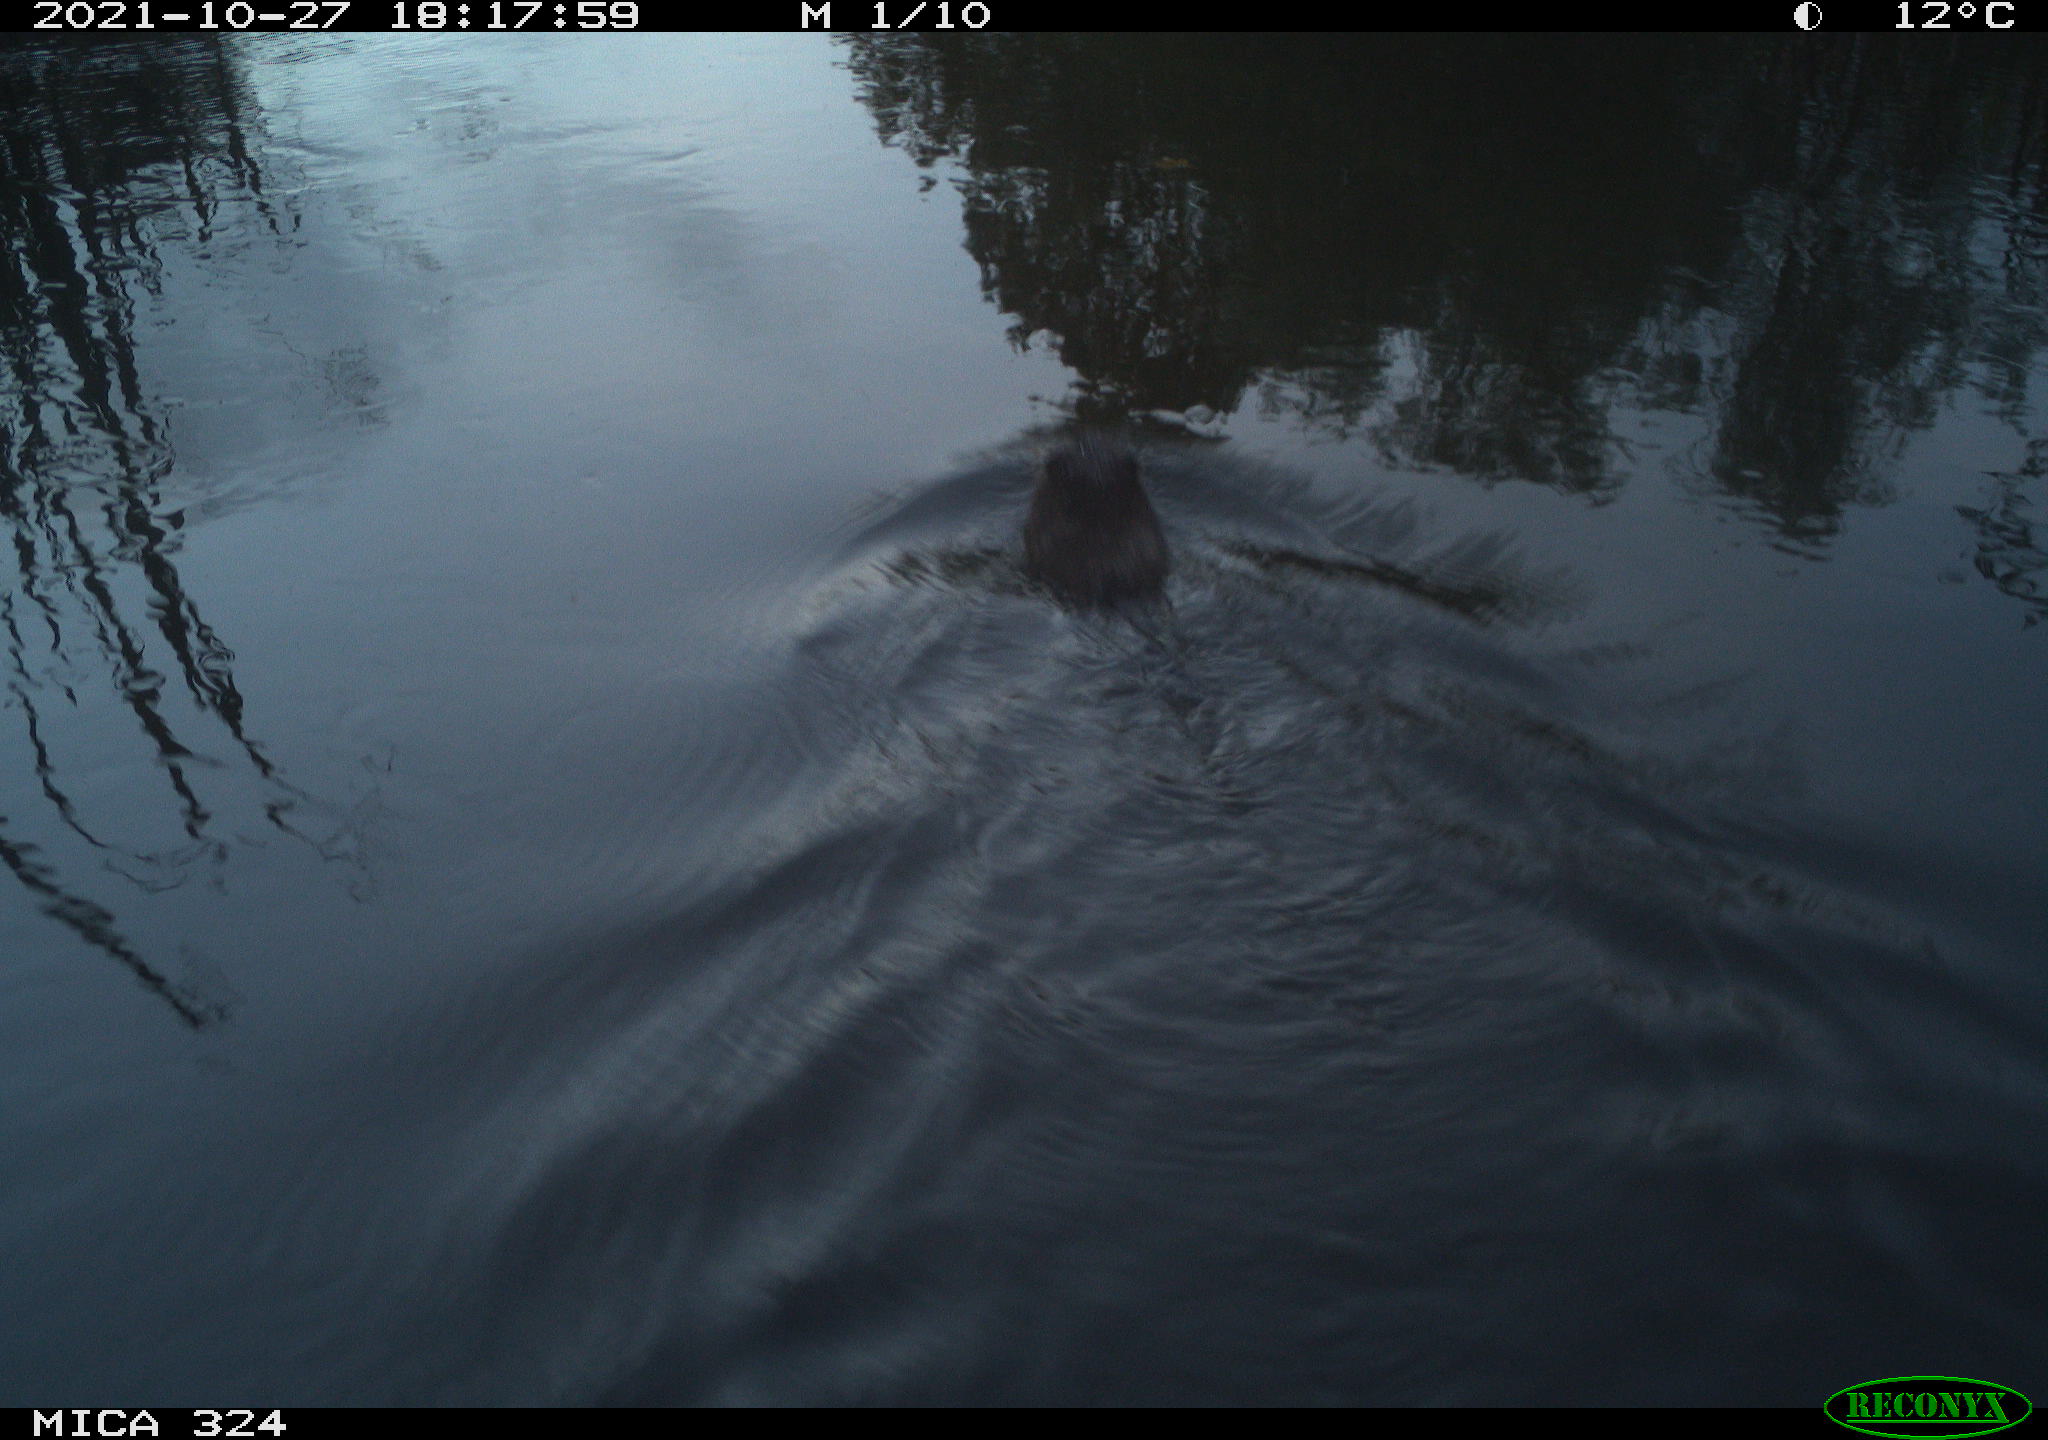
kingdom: Animalia
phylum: Chordata
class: Mammalia
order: Rodentia
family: Cricetidae
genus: Ondatra
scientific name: Ondatra zibethicus
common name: Muskrat
